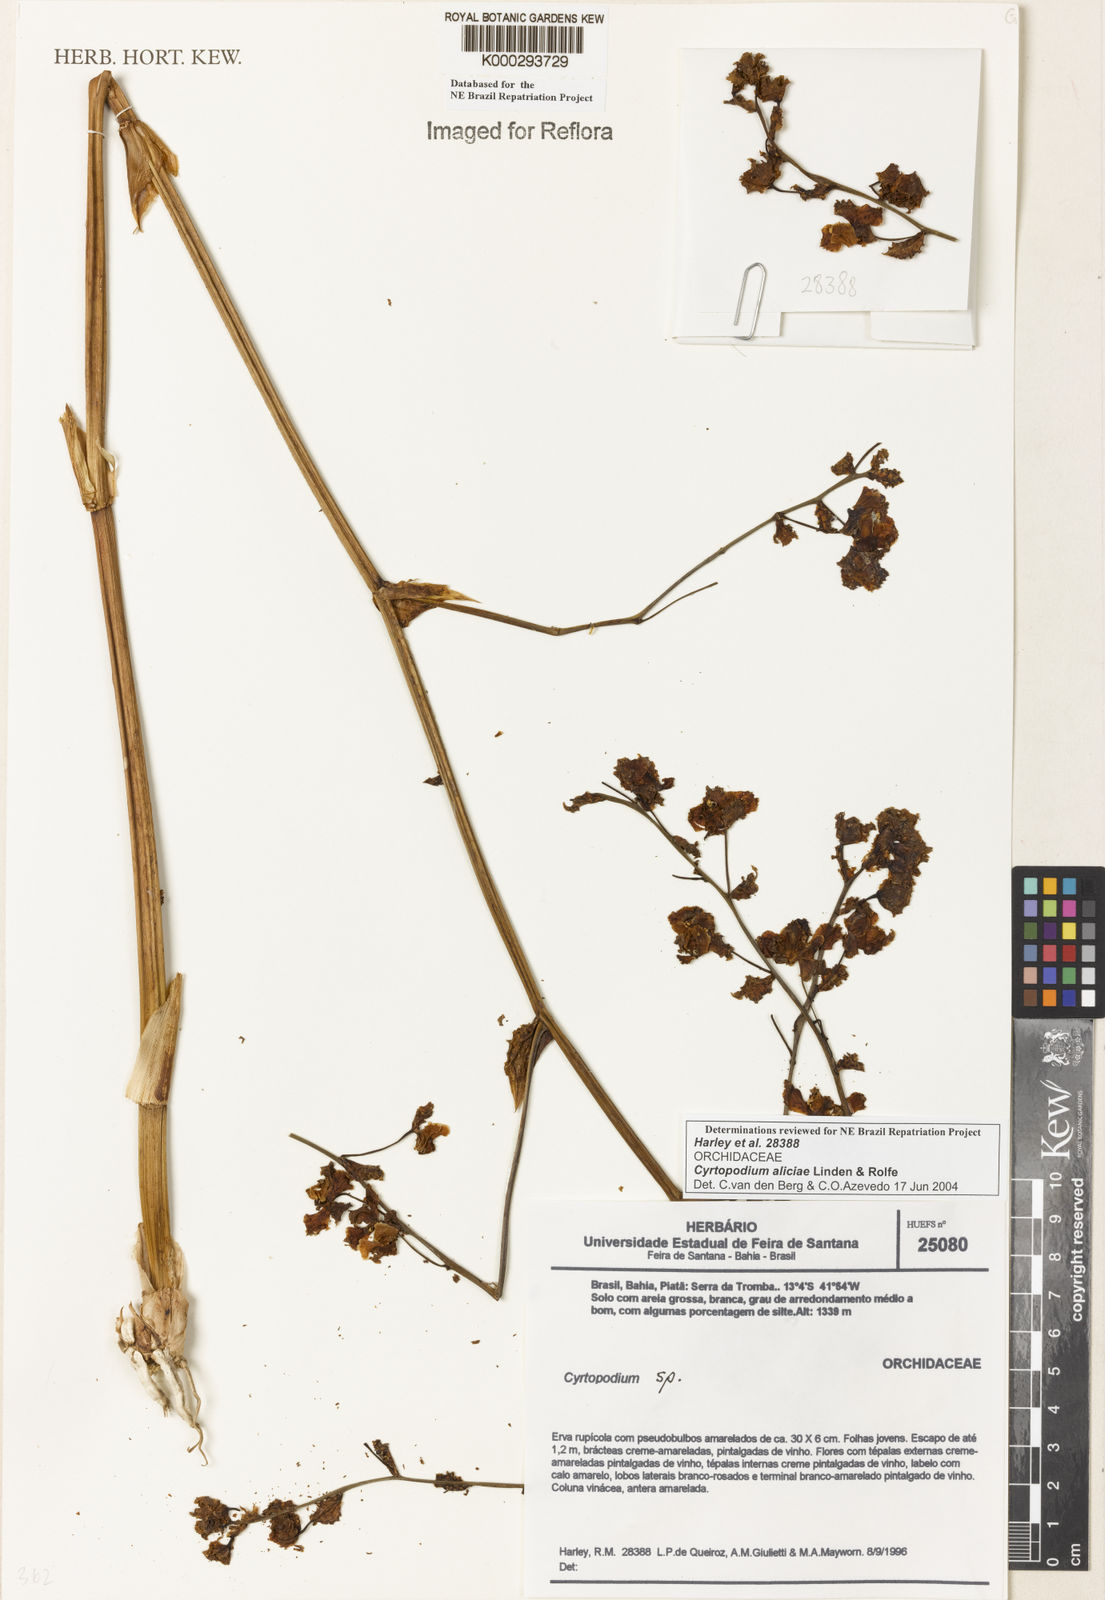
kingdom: Plantae
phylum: Tracheophyta
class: Liliopsida
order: Asparagales
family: Orchidaceae
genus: Cyrtopodium
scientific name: Cyrtopodium aliciae
